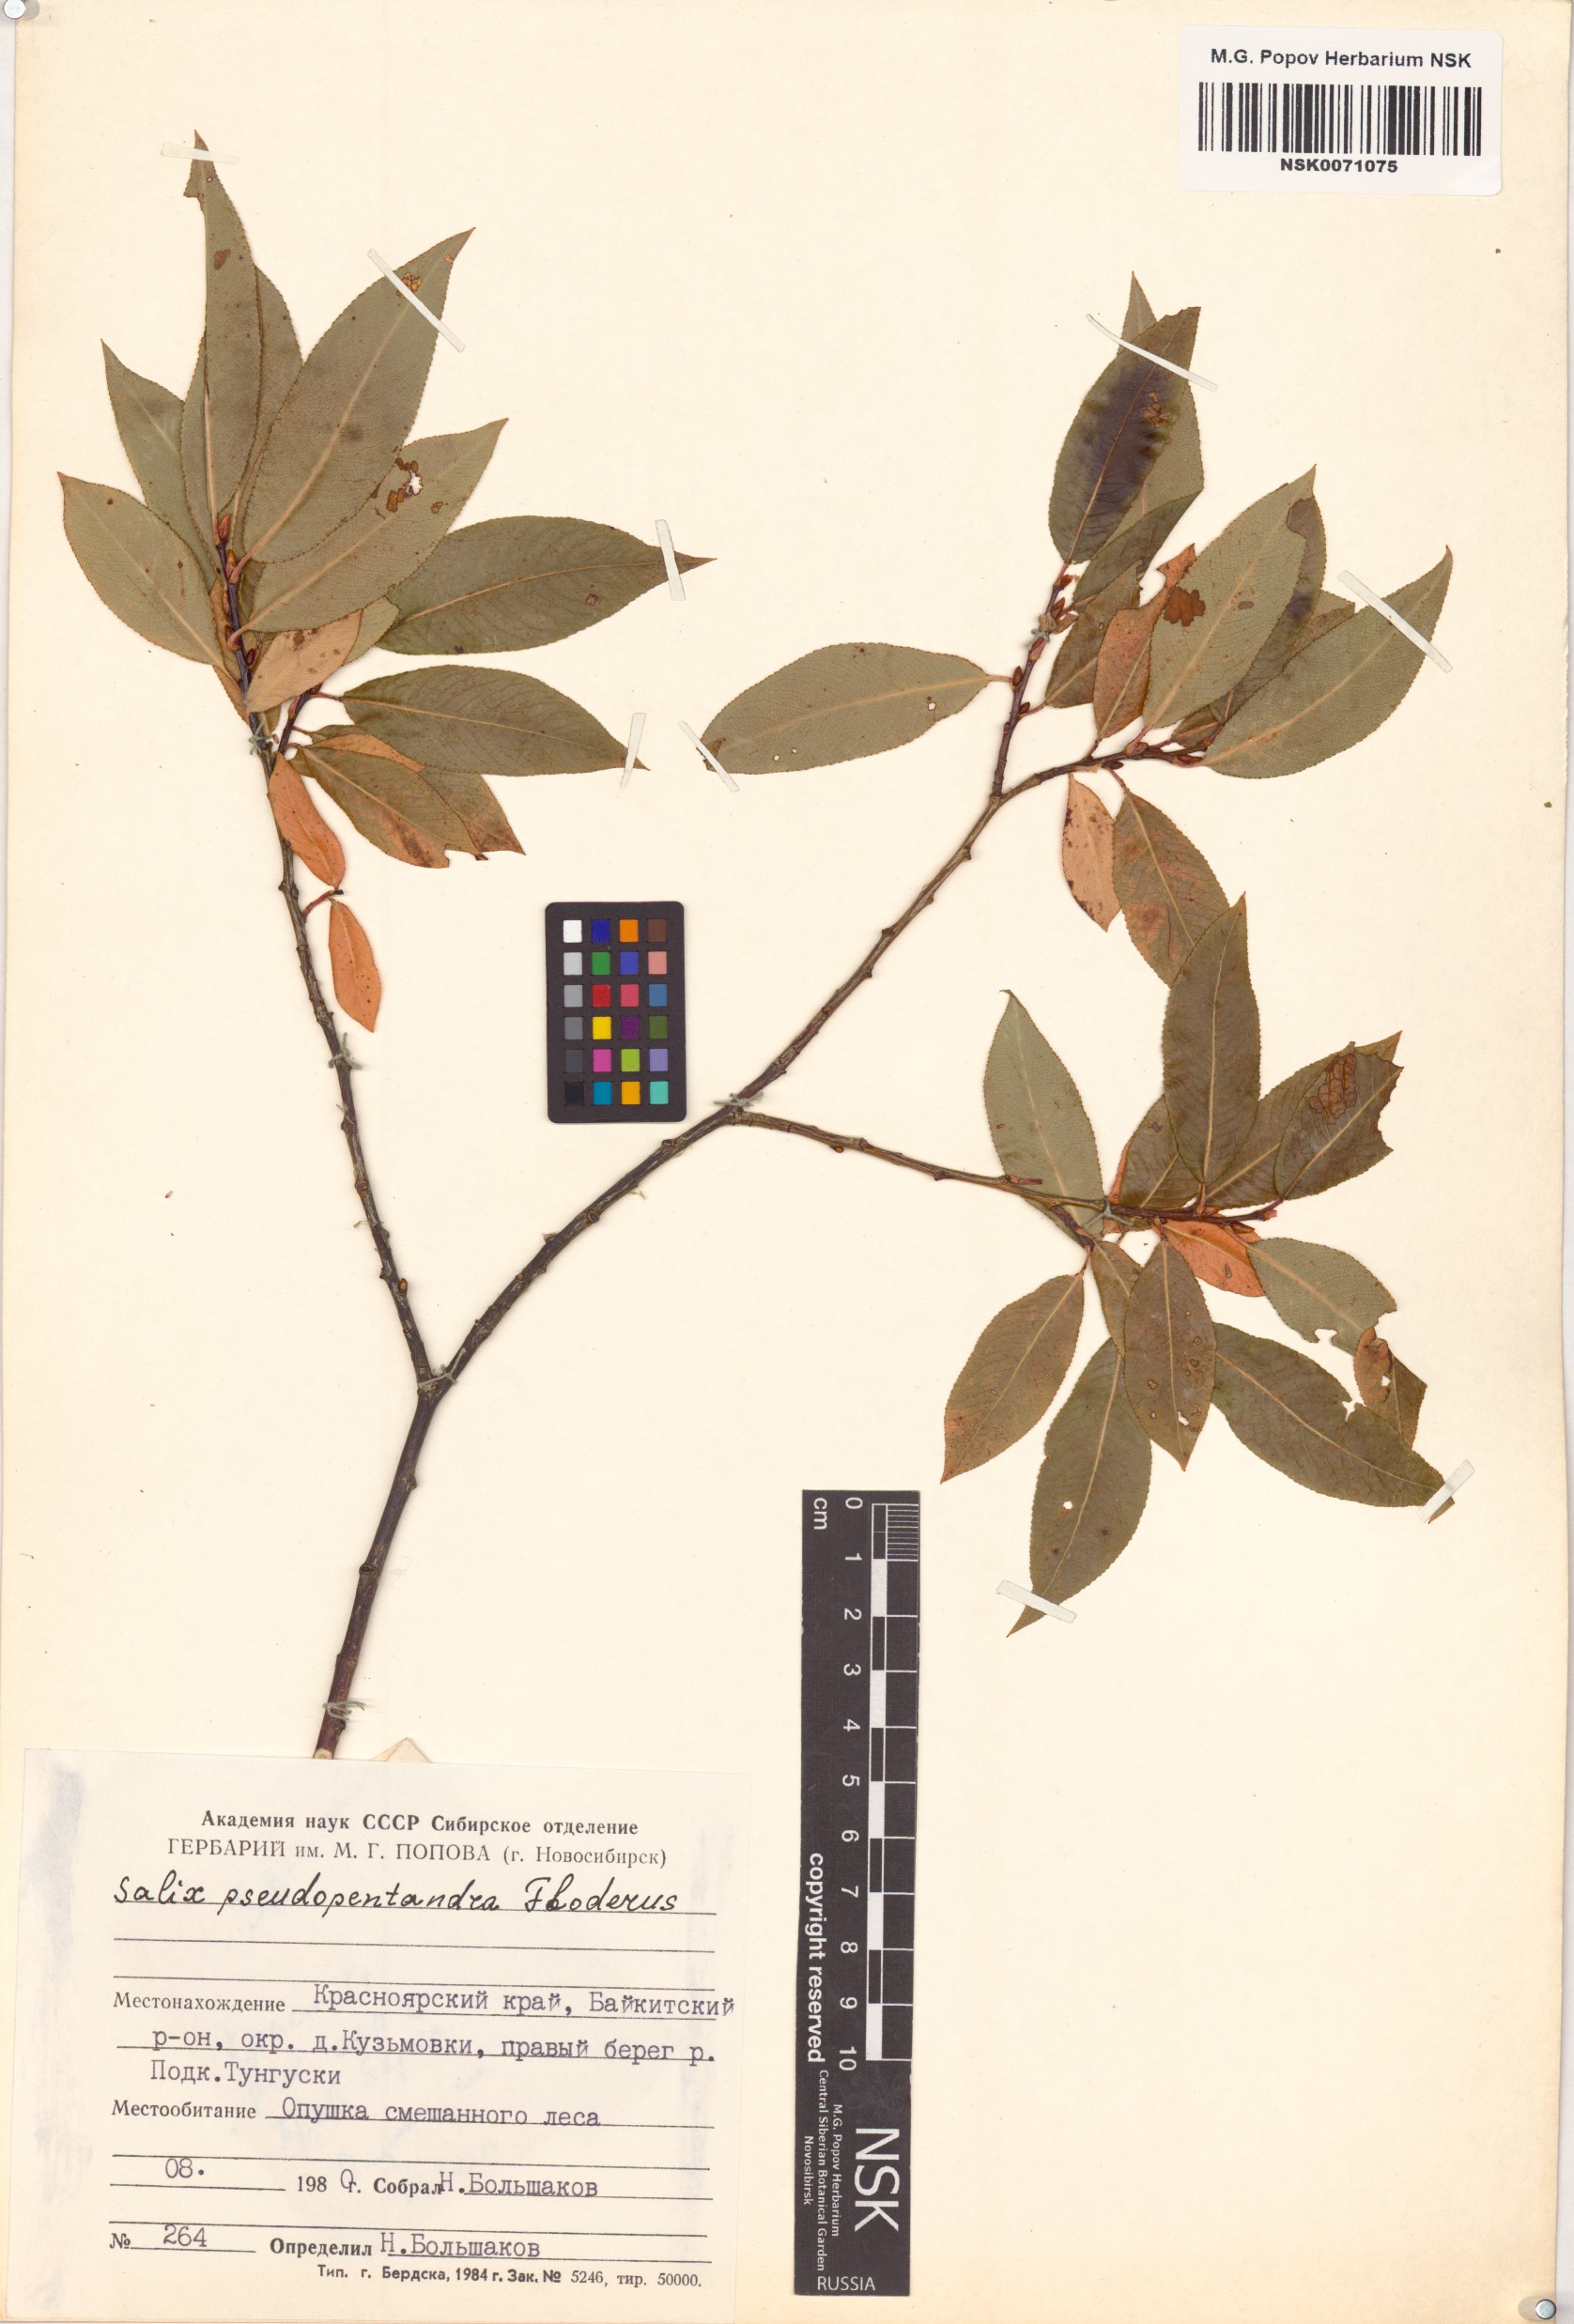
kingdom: Plantae
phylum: Tracheophyta
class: Magnoliopsida
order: Malpighiales
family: Salicaceae
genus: Salix
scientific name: Salix pseudopentandra
